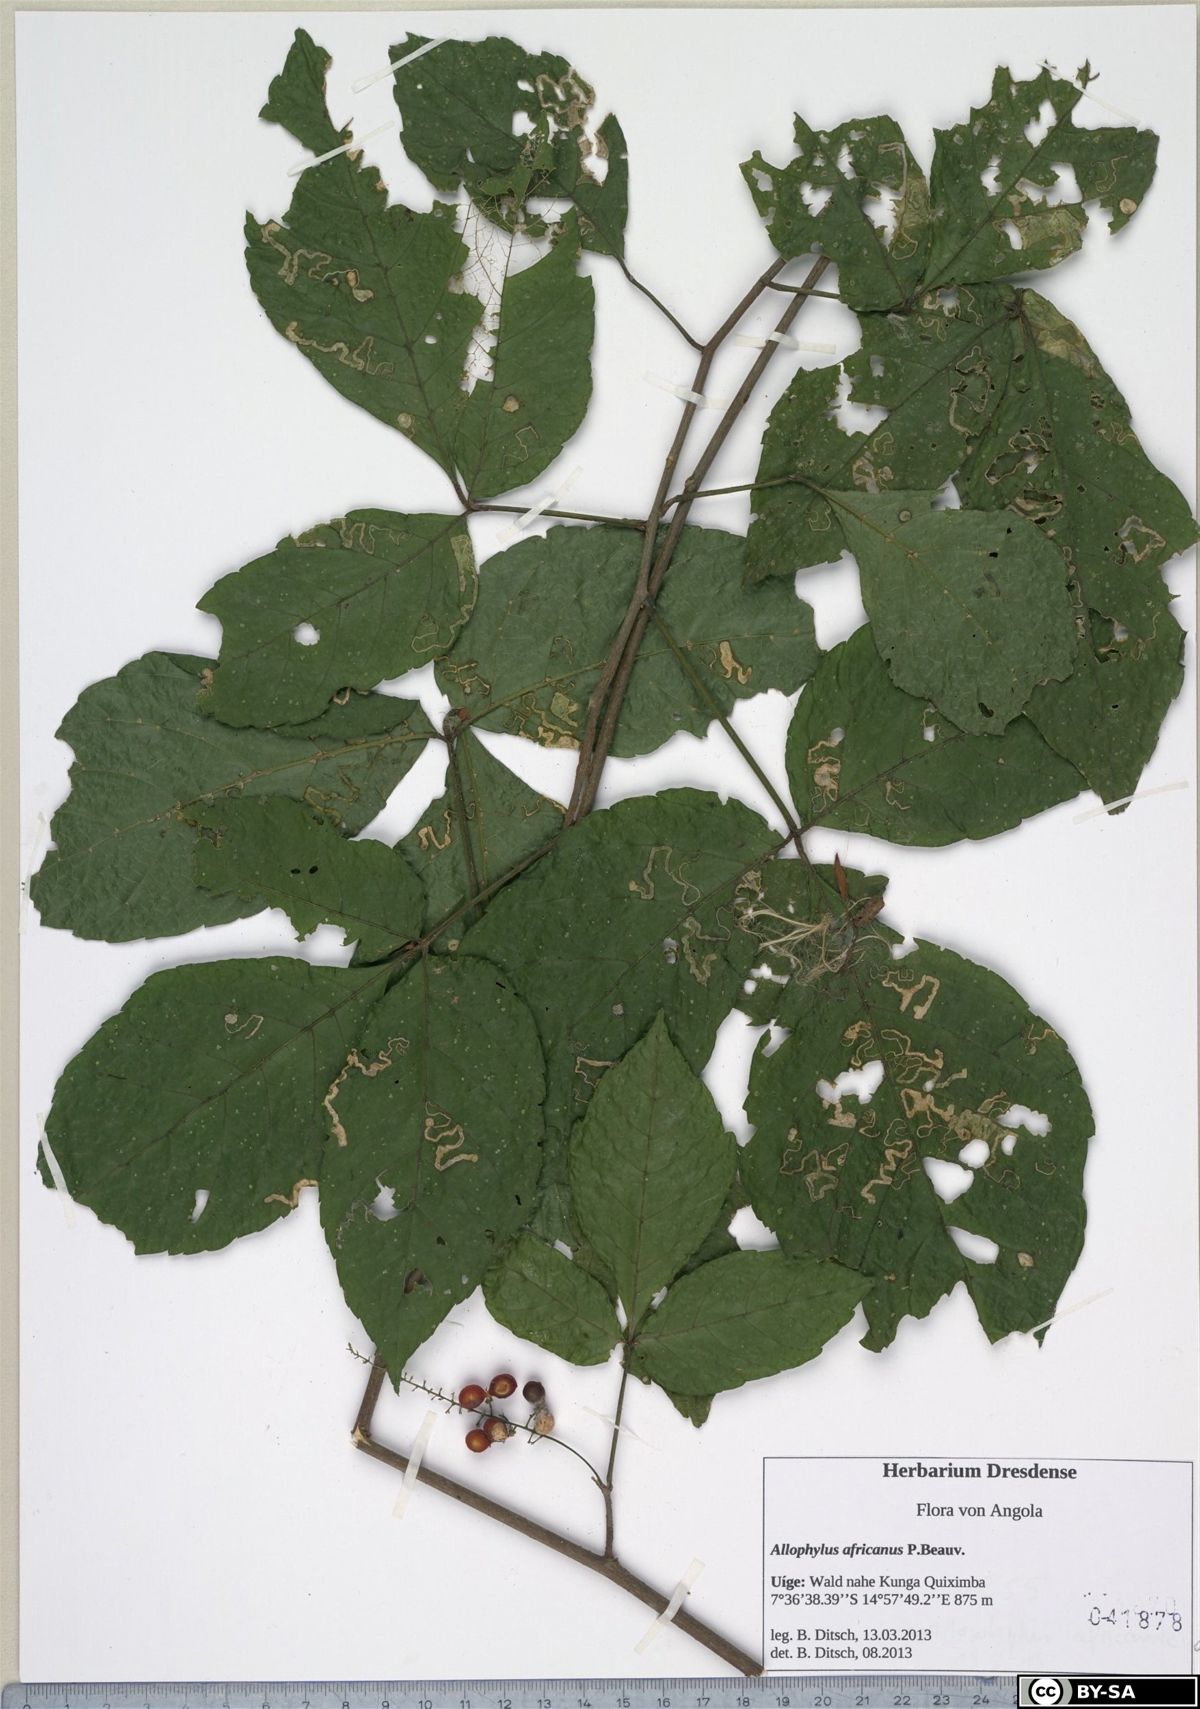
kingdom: Plantae
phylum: Tracheophyta
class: Magnoliopsida
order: Sapindales
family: Sapindaceae
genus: Allophylus
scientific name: Allophylus ferrugineus
